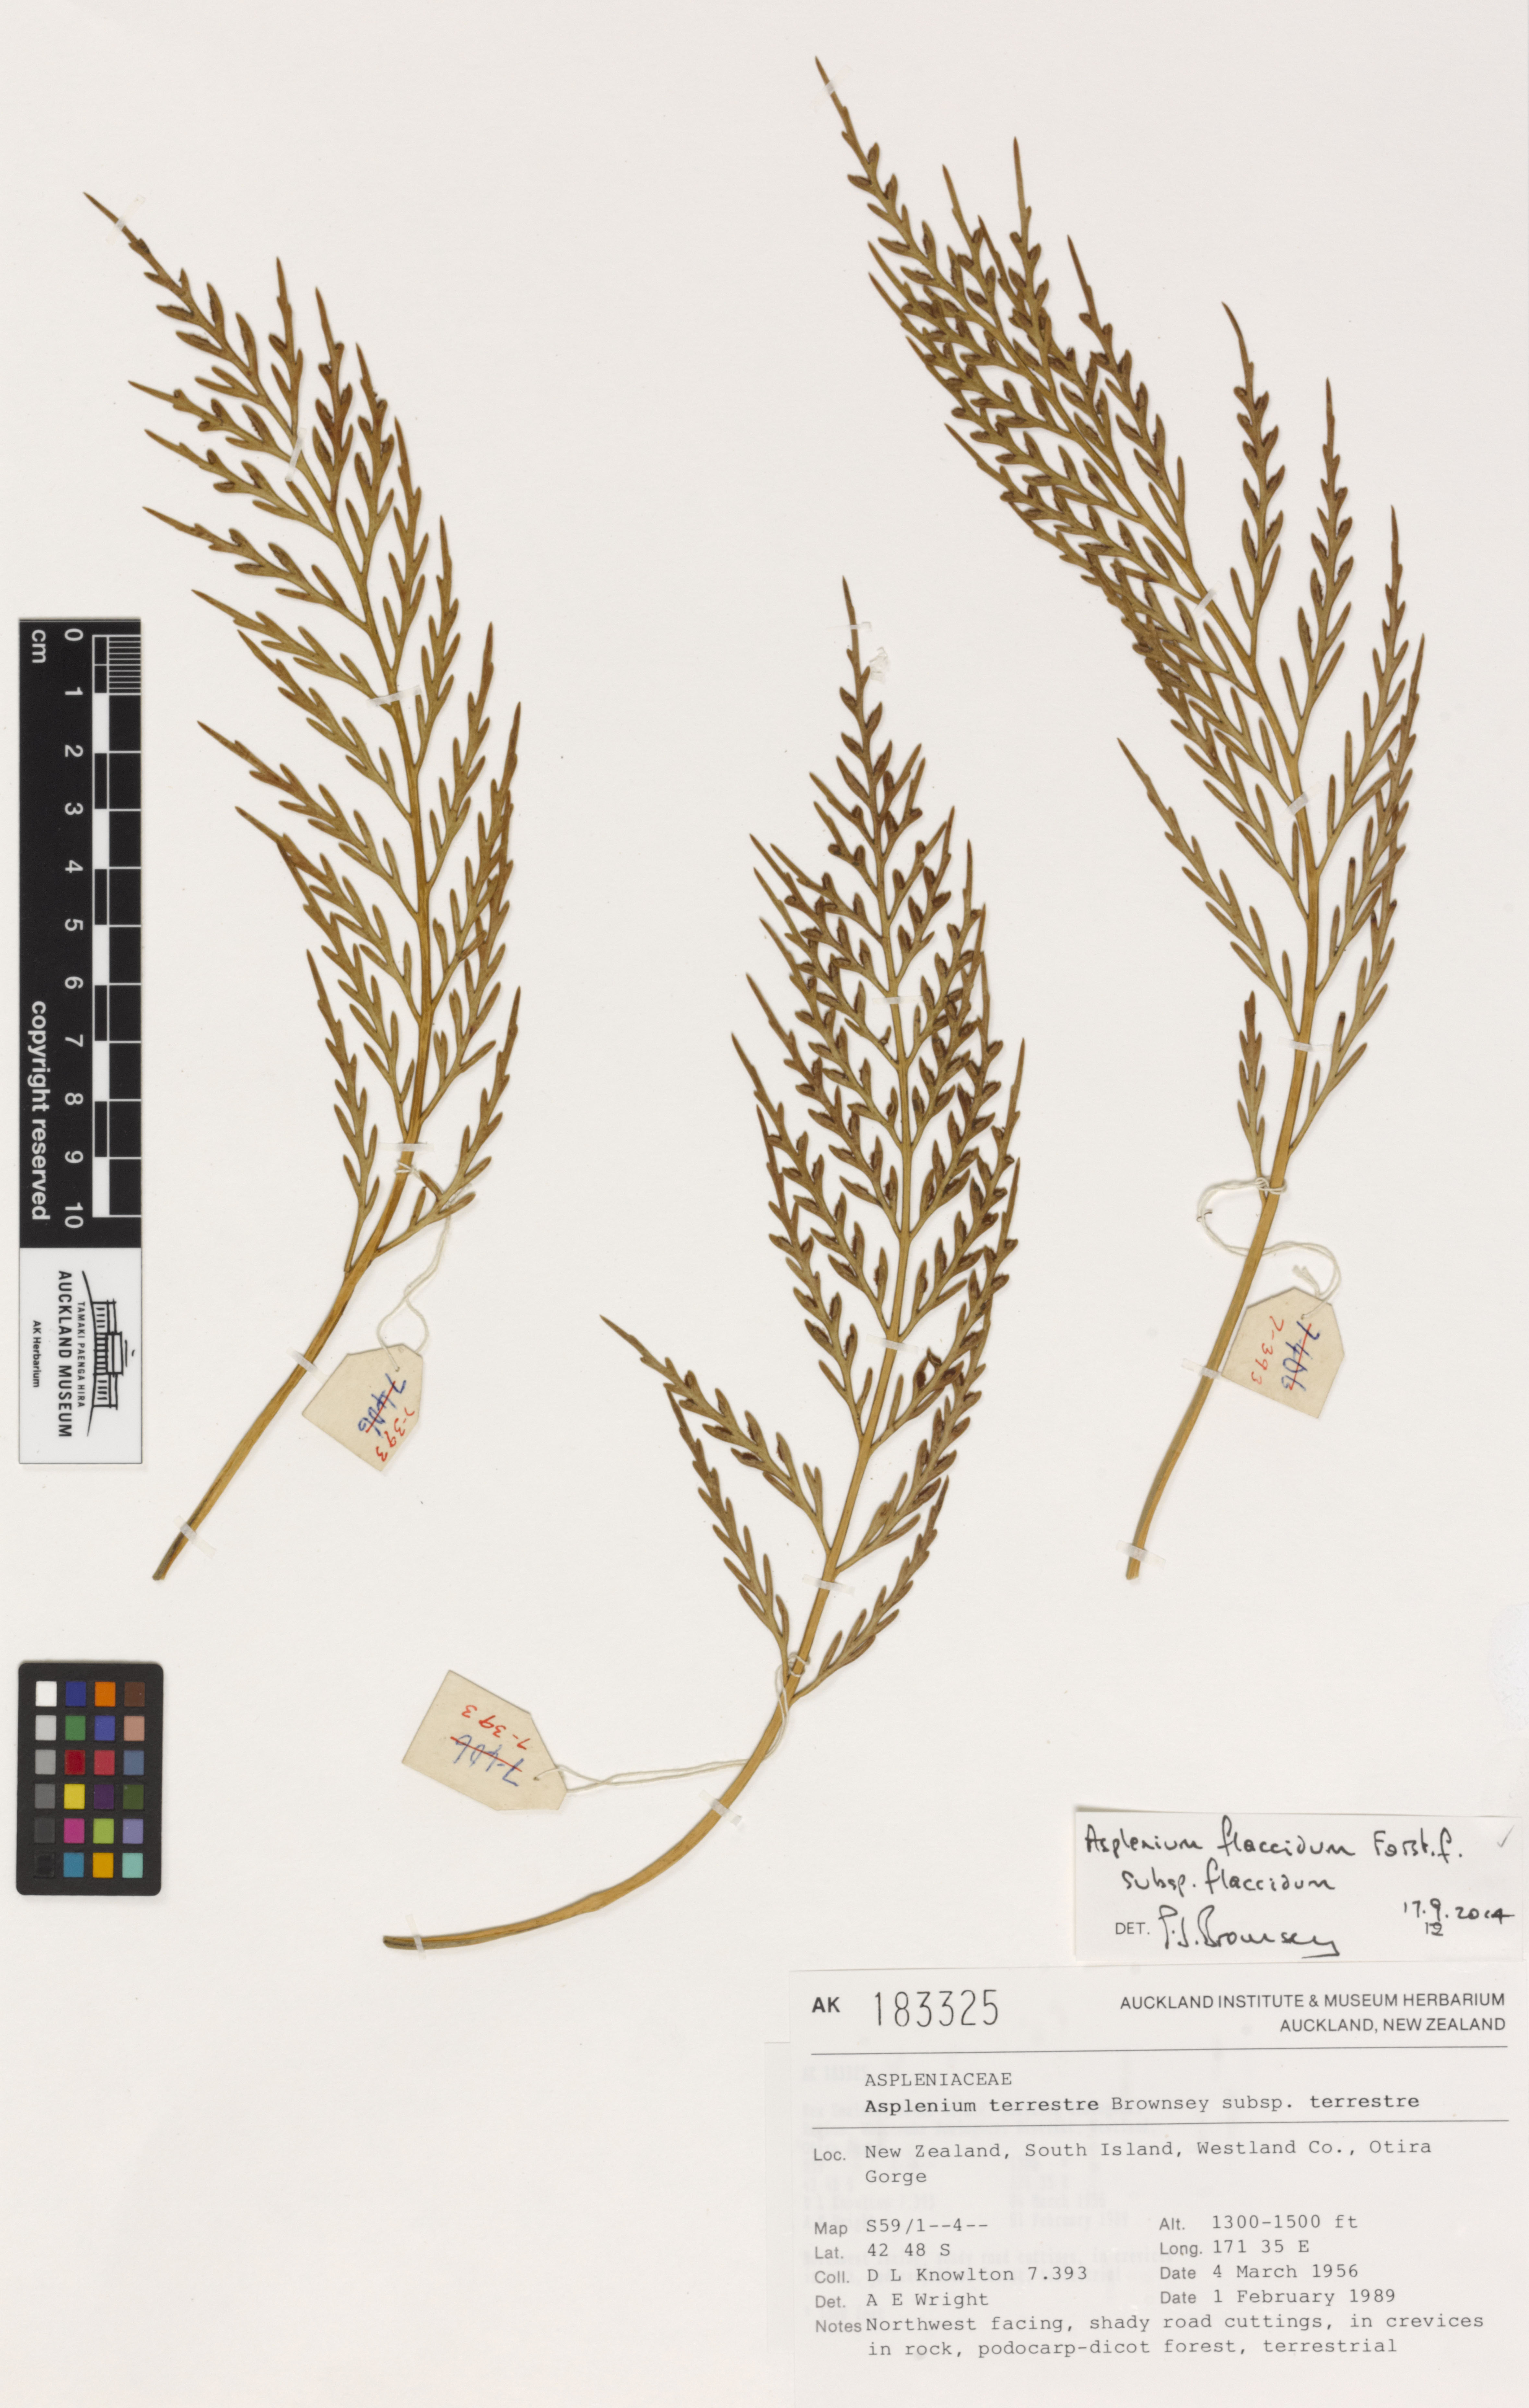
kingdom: Plantae
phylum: Tracheophyta
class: Polypodiopsida
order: Polypodiales
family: Aspleniaceae
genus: Asplenium
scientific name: Asplenium flaccidum
